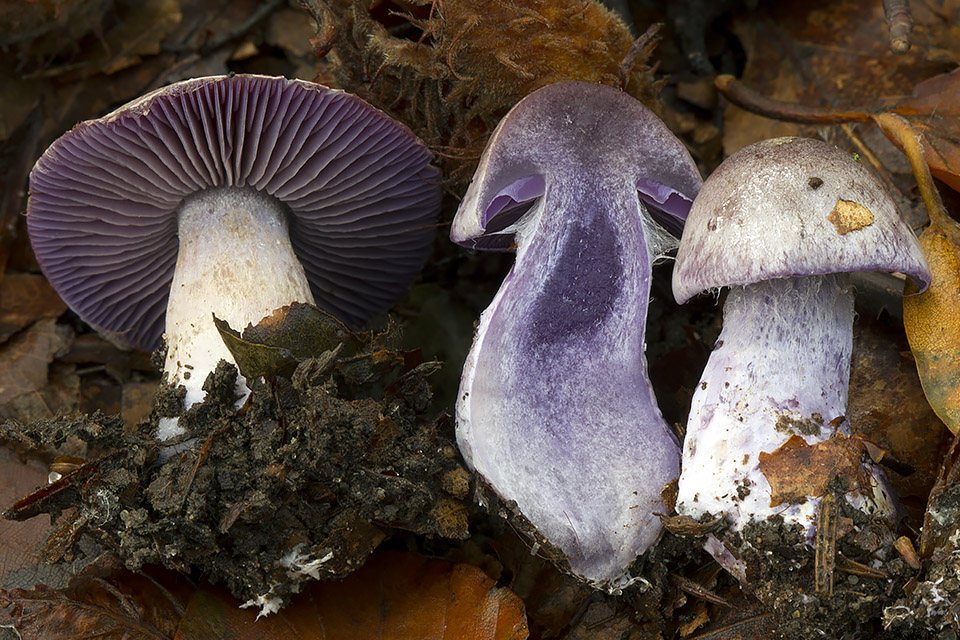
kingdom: Fungi
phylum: Basidiomycota
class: Agaricomycetes
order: Agaricales
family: Cortinariaceae
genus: Thaxterogaster
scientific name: Thaxterogaster subporphyropus
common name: ametyst-slørhat
